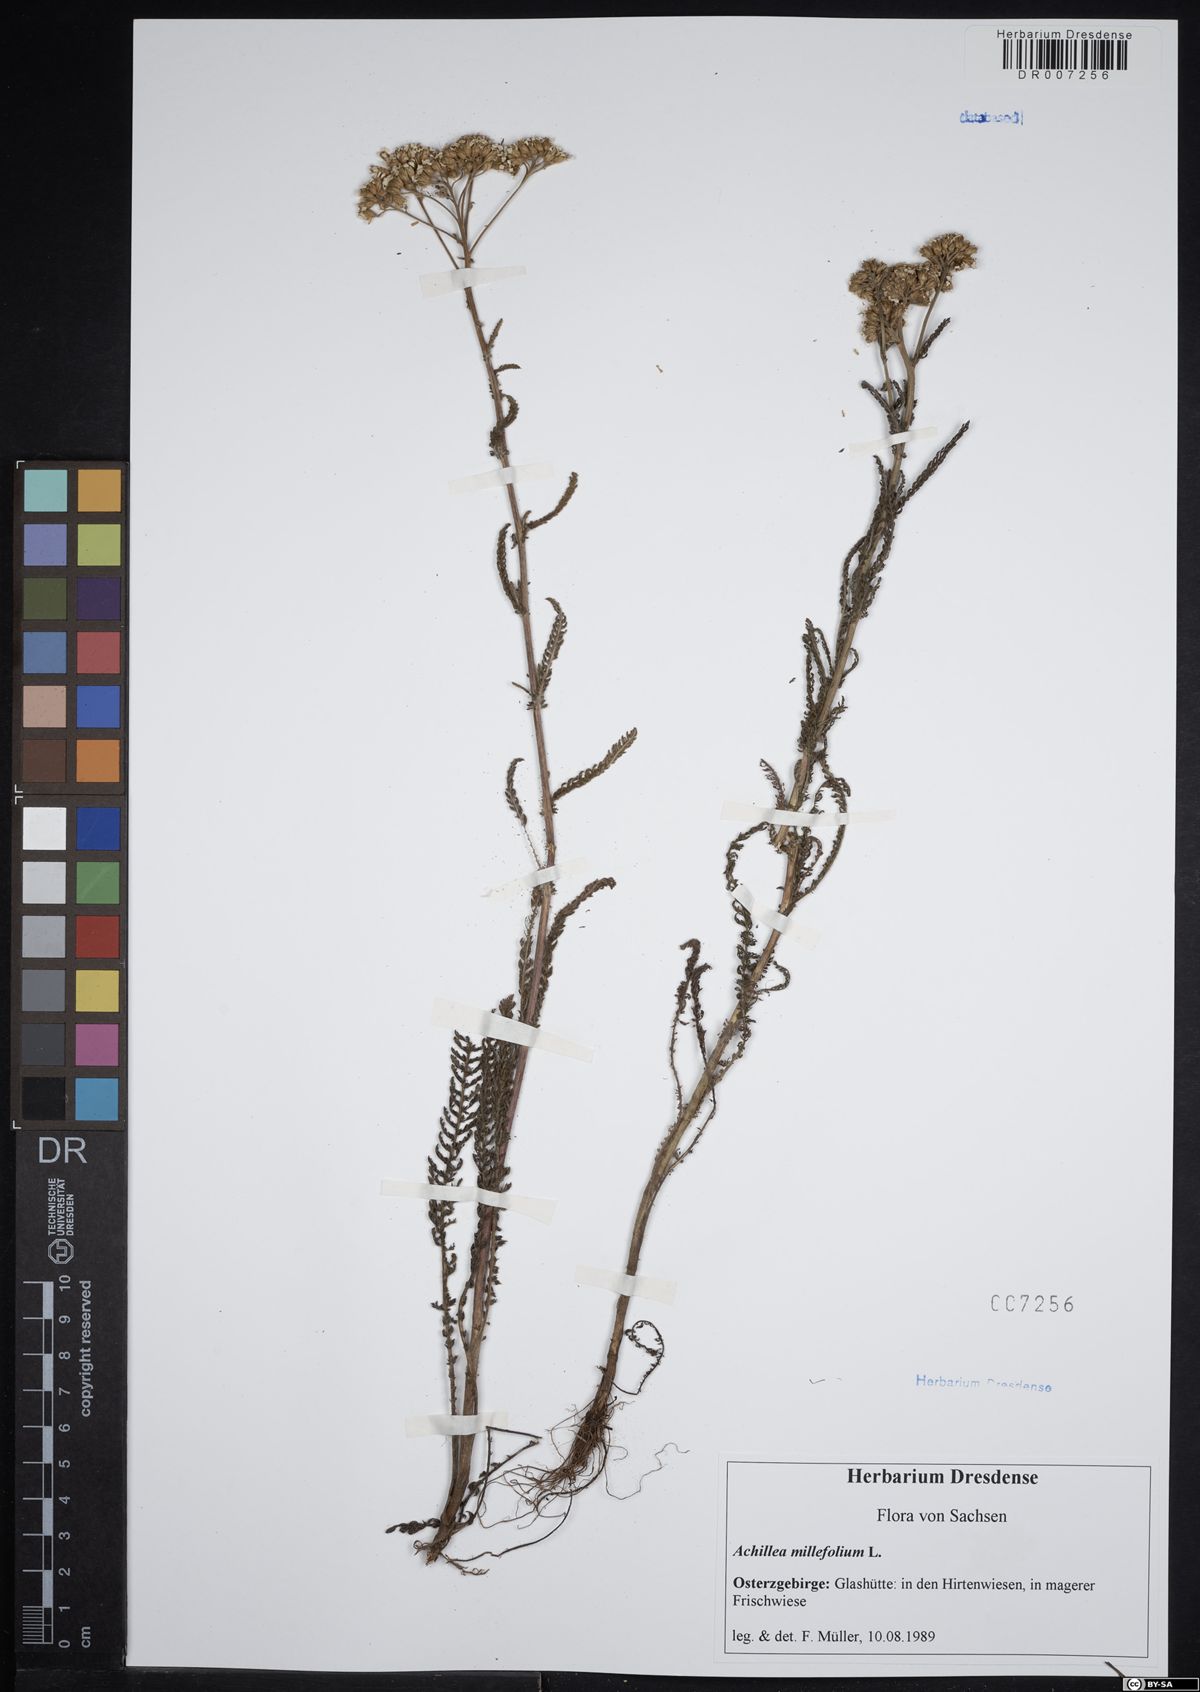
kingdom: Plantae
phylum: Tracheophyta
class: Magnoliopsida
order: Asterales
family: Asteraceae
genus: Achillea
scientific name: Achillea millefolium
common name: Yarrow
